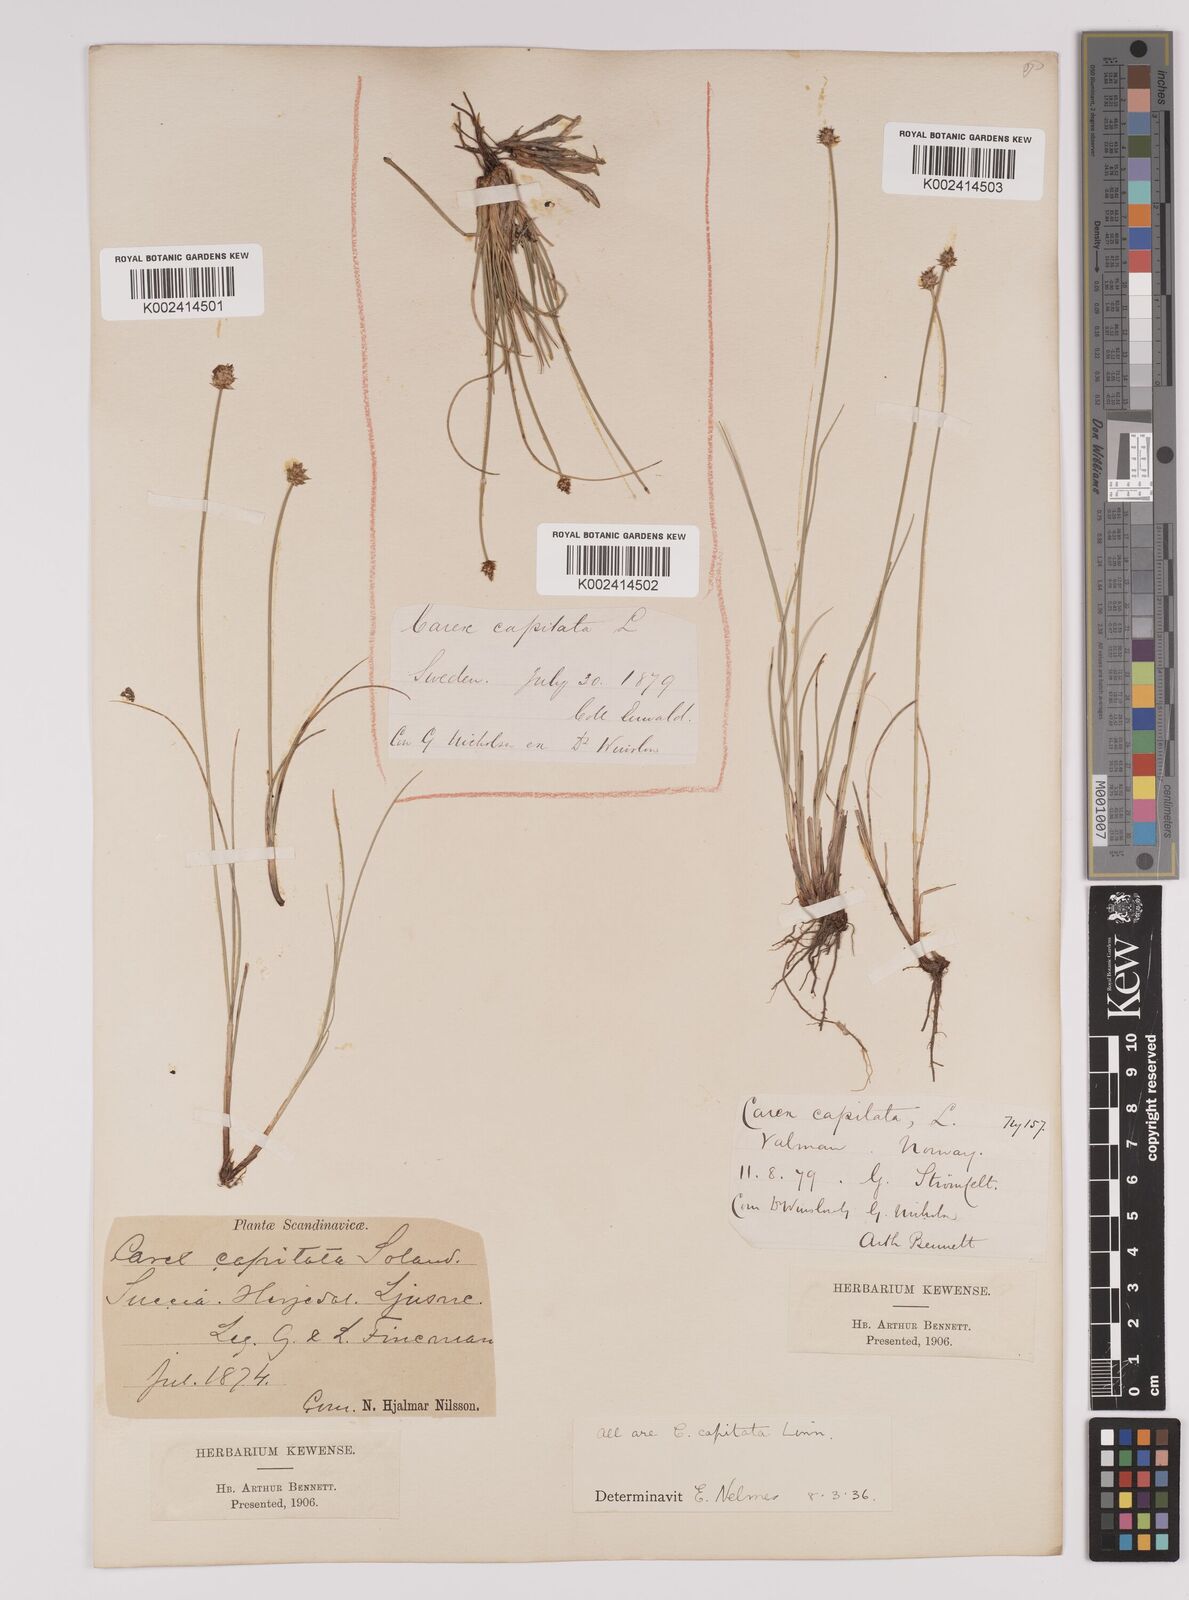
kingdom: Plantae
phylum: Tracheophyta
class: Liliopsida
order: Poales
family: Cyperaceae
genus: Carex
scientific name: Carex capitata
